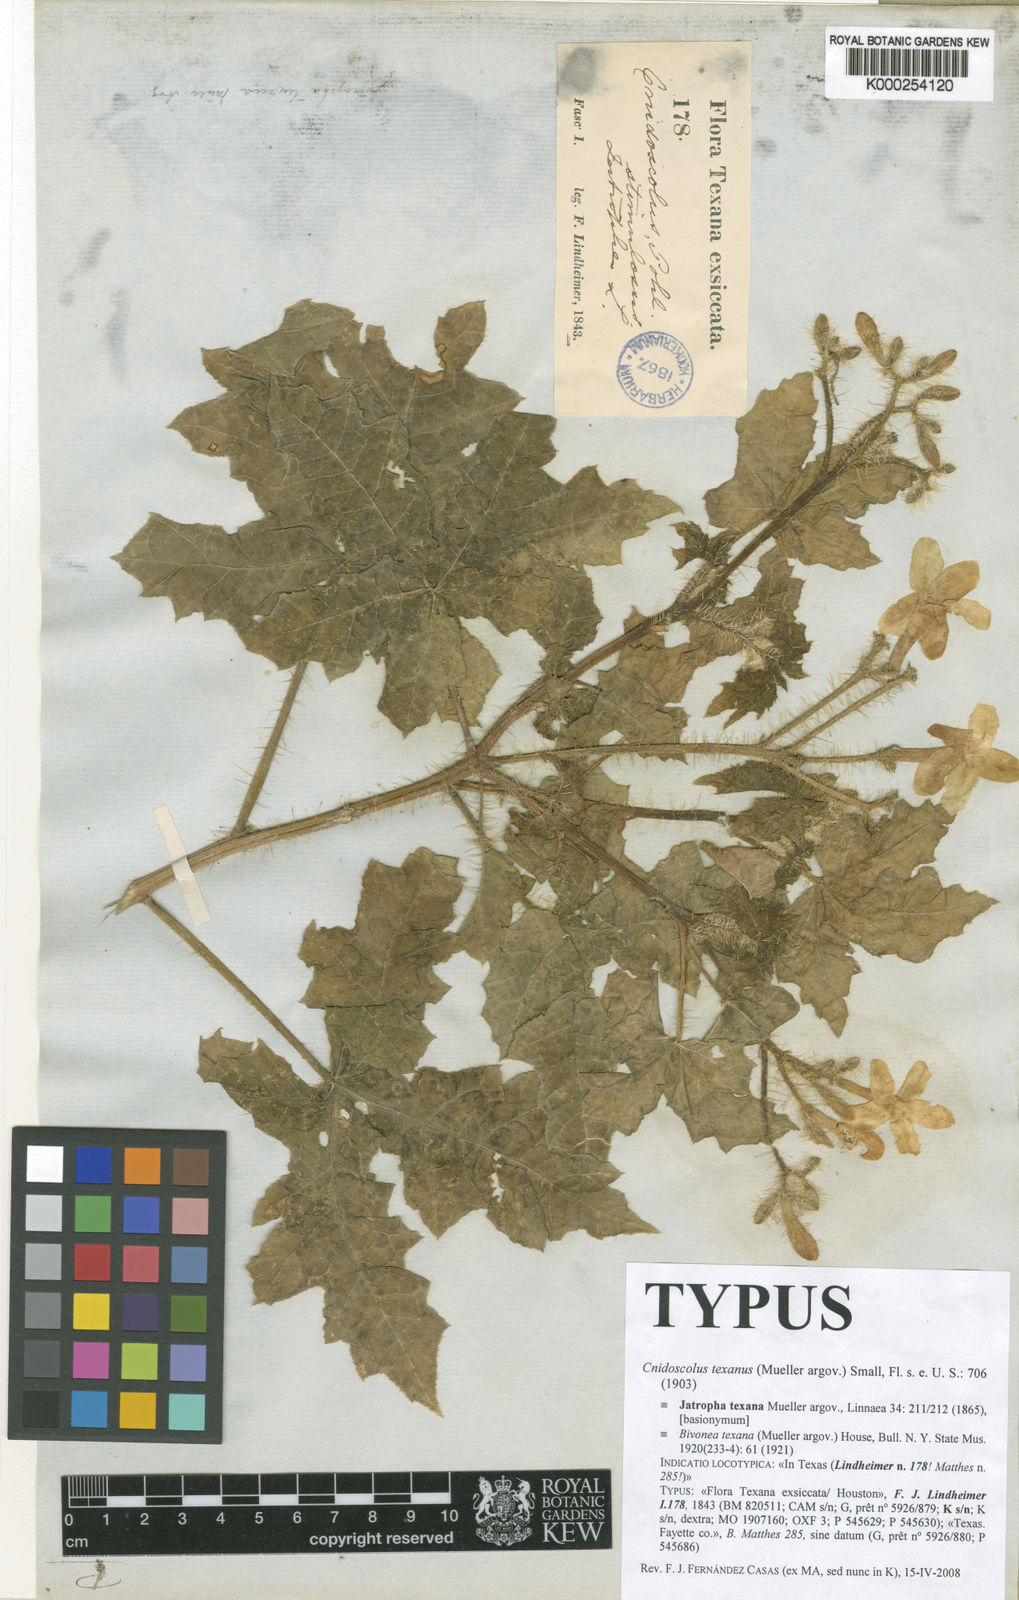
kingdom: Plantae
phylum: Tracheophyta
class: Magnoliopsida
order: Malpighiales
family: Euphorbiaceae
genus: Cnidoscolus
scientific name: Cnidoscolus texanus
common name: Texas bull-nettle
